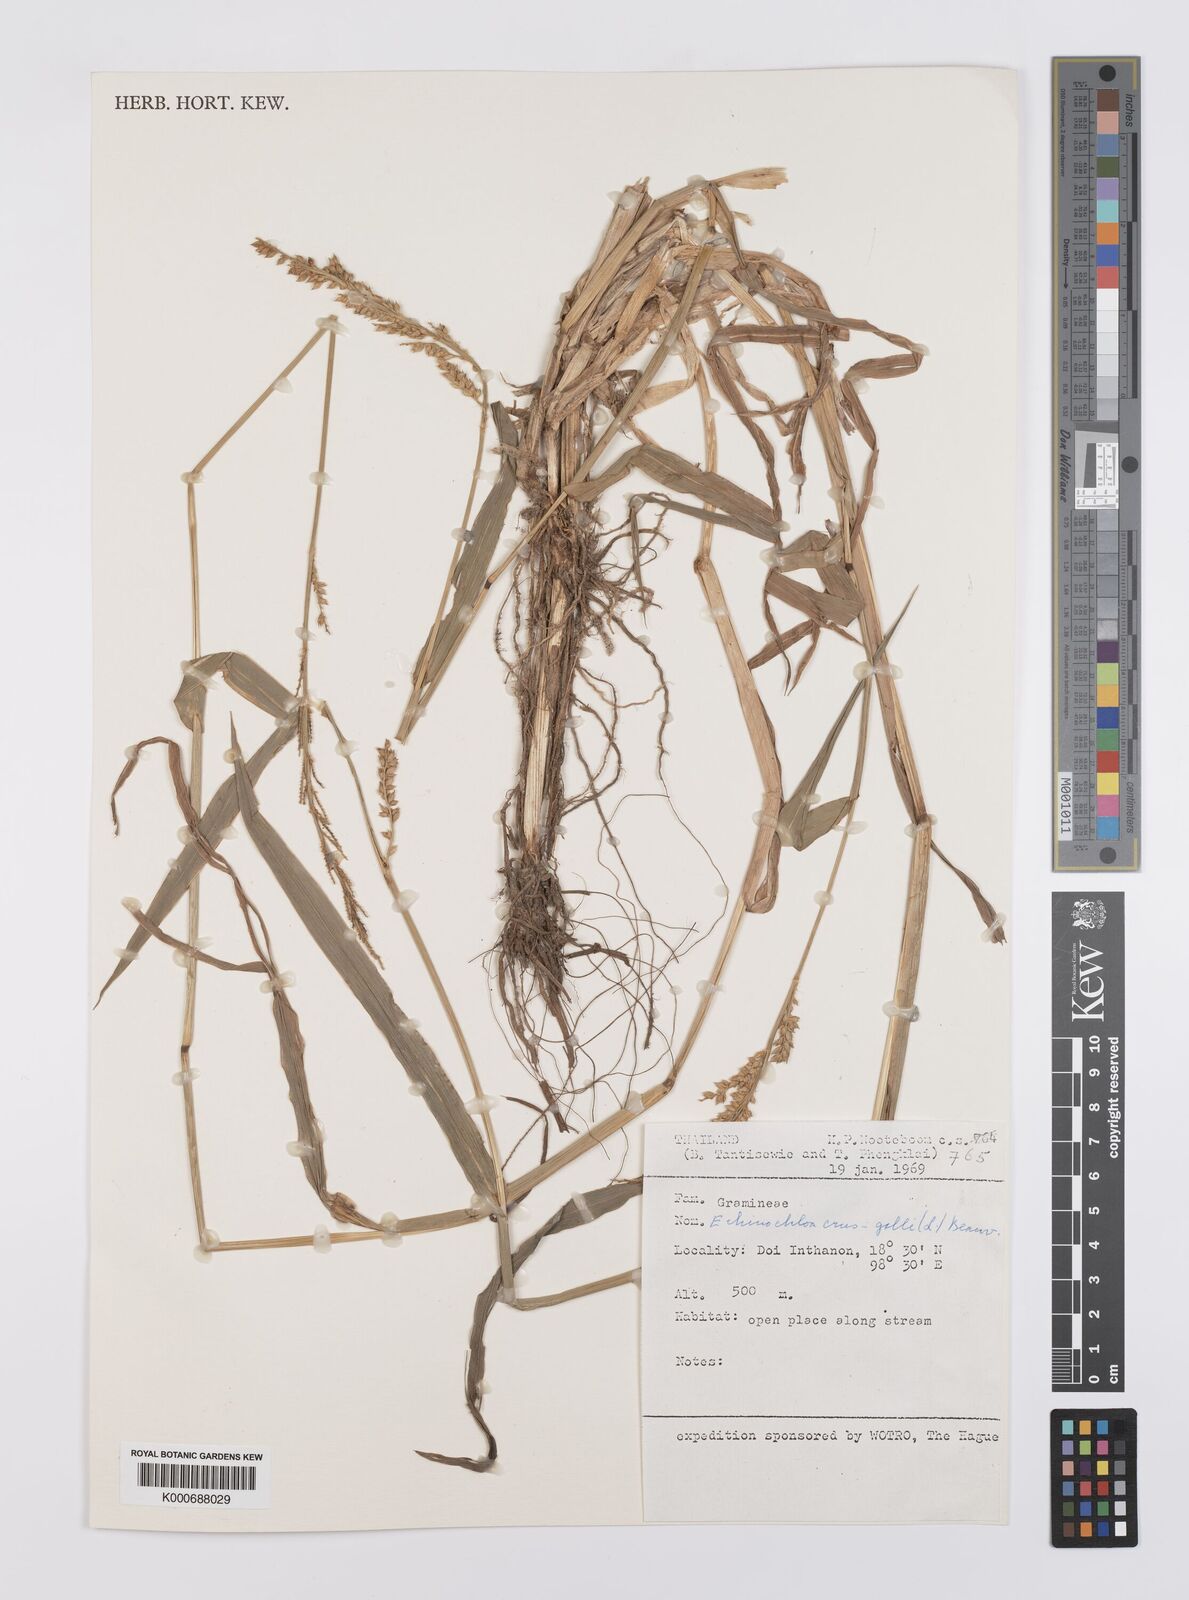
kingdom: Plantae
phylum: Tracheophyta
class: Liliopsida
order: Poales
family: Poaceae
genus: Echinochloa
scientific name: Echinochloa crus-galli
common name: Cockspur
